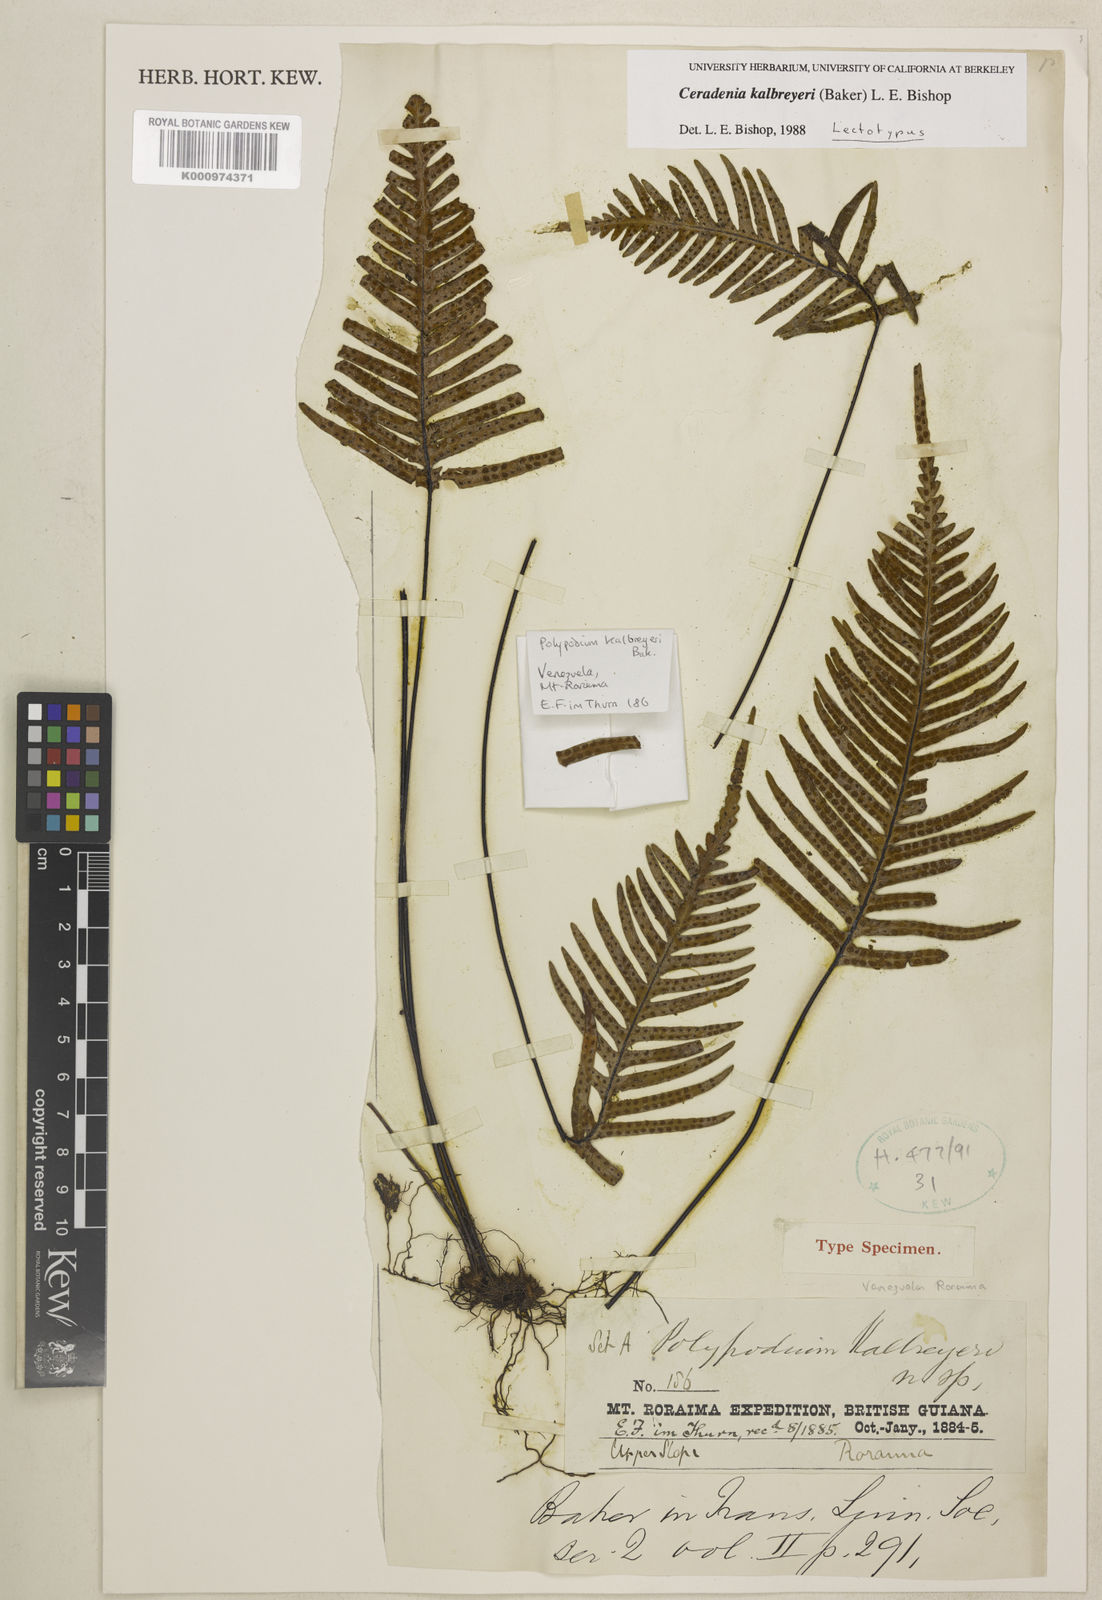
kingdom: Plantae
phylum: Tracheophyta
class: Polypodiopsida
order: Polypodiales
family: Polypodiaceae
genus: Ceradenia
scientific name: Ceradenia kalbreyeri
